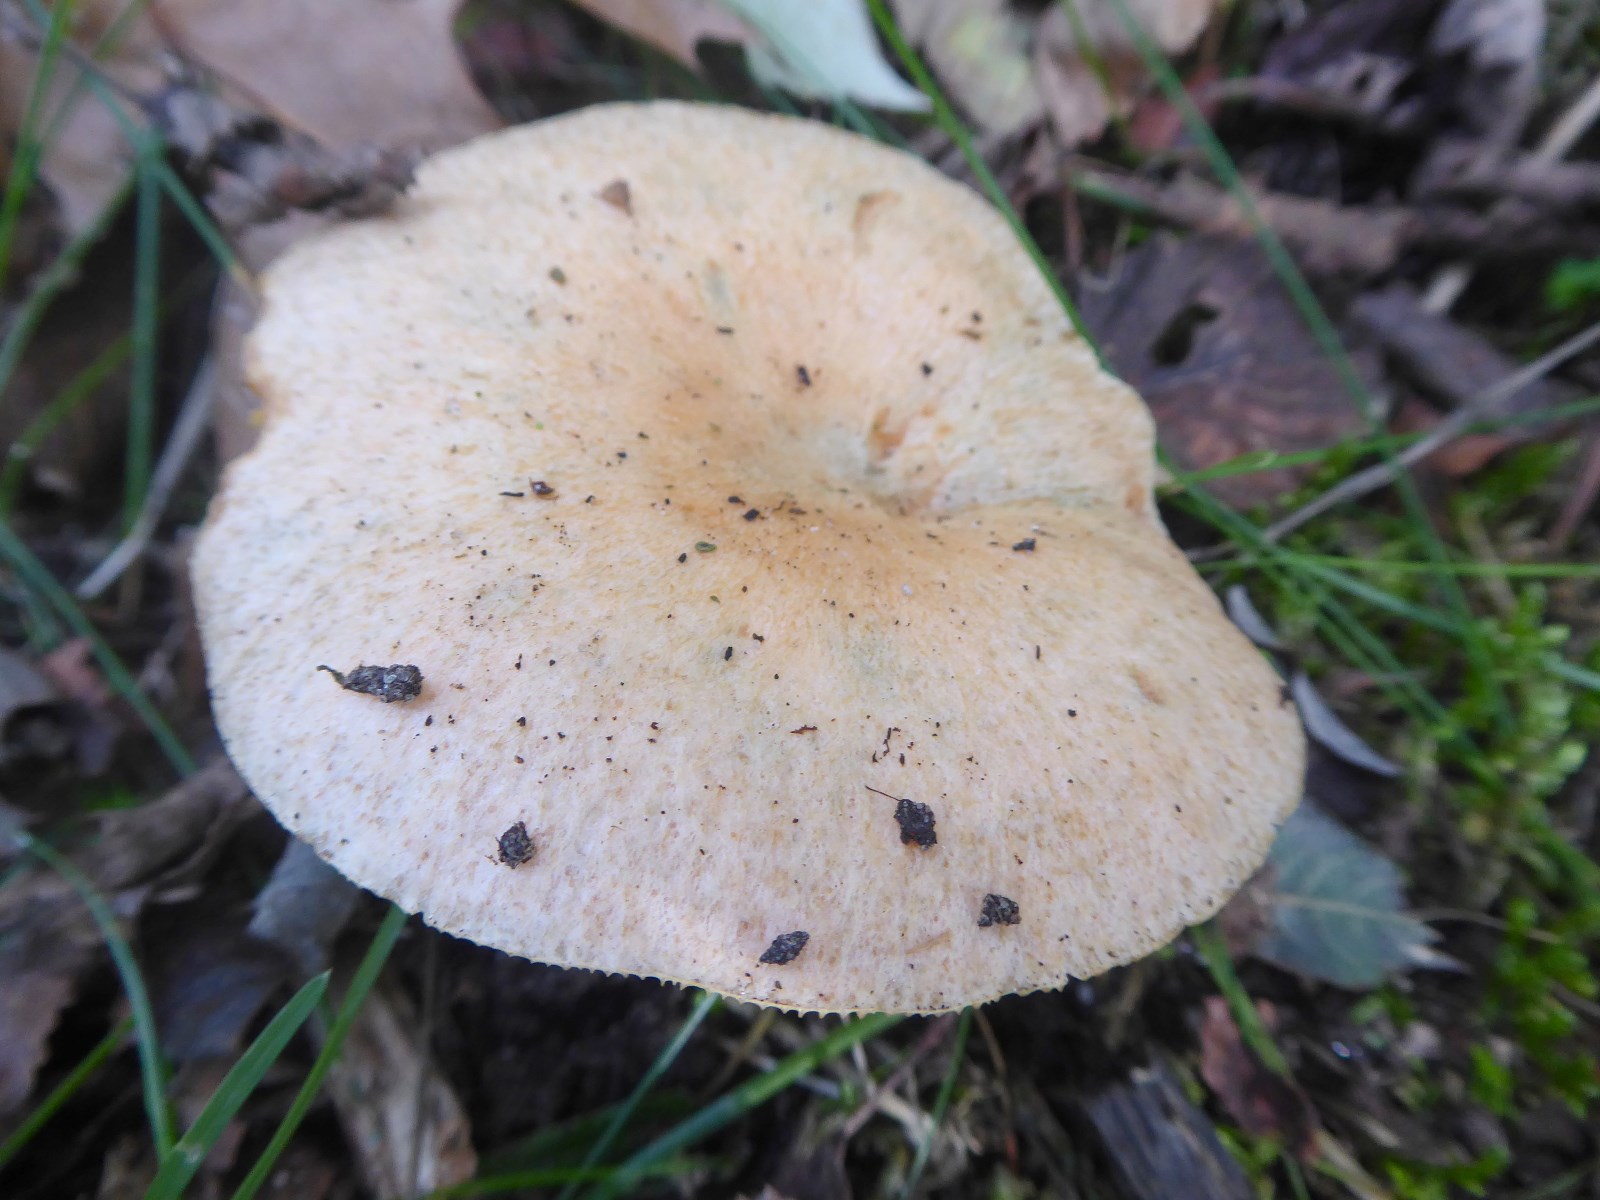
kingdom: Fungi
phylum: Basidiomycota
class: Agaricomycetes
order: Russulales
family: Russulaceae
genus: Lactarius
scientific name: Lactarius deterrimus
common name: gran-mælkehat
